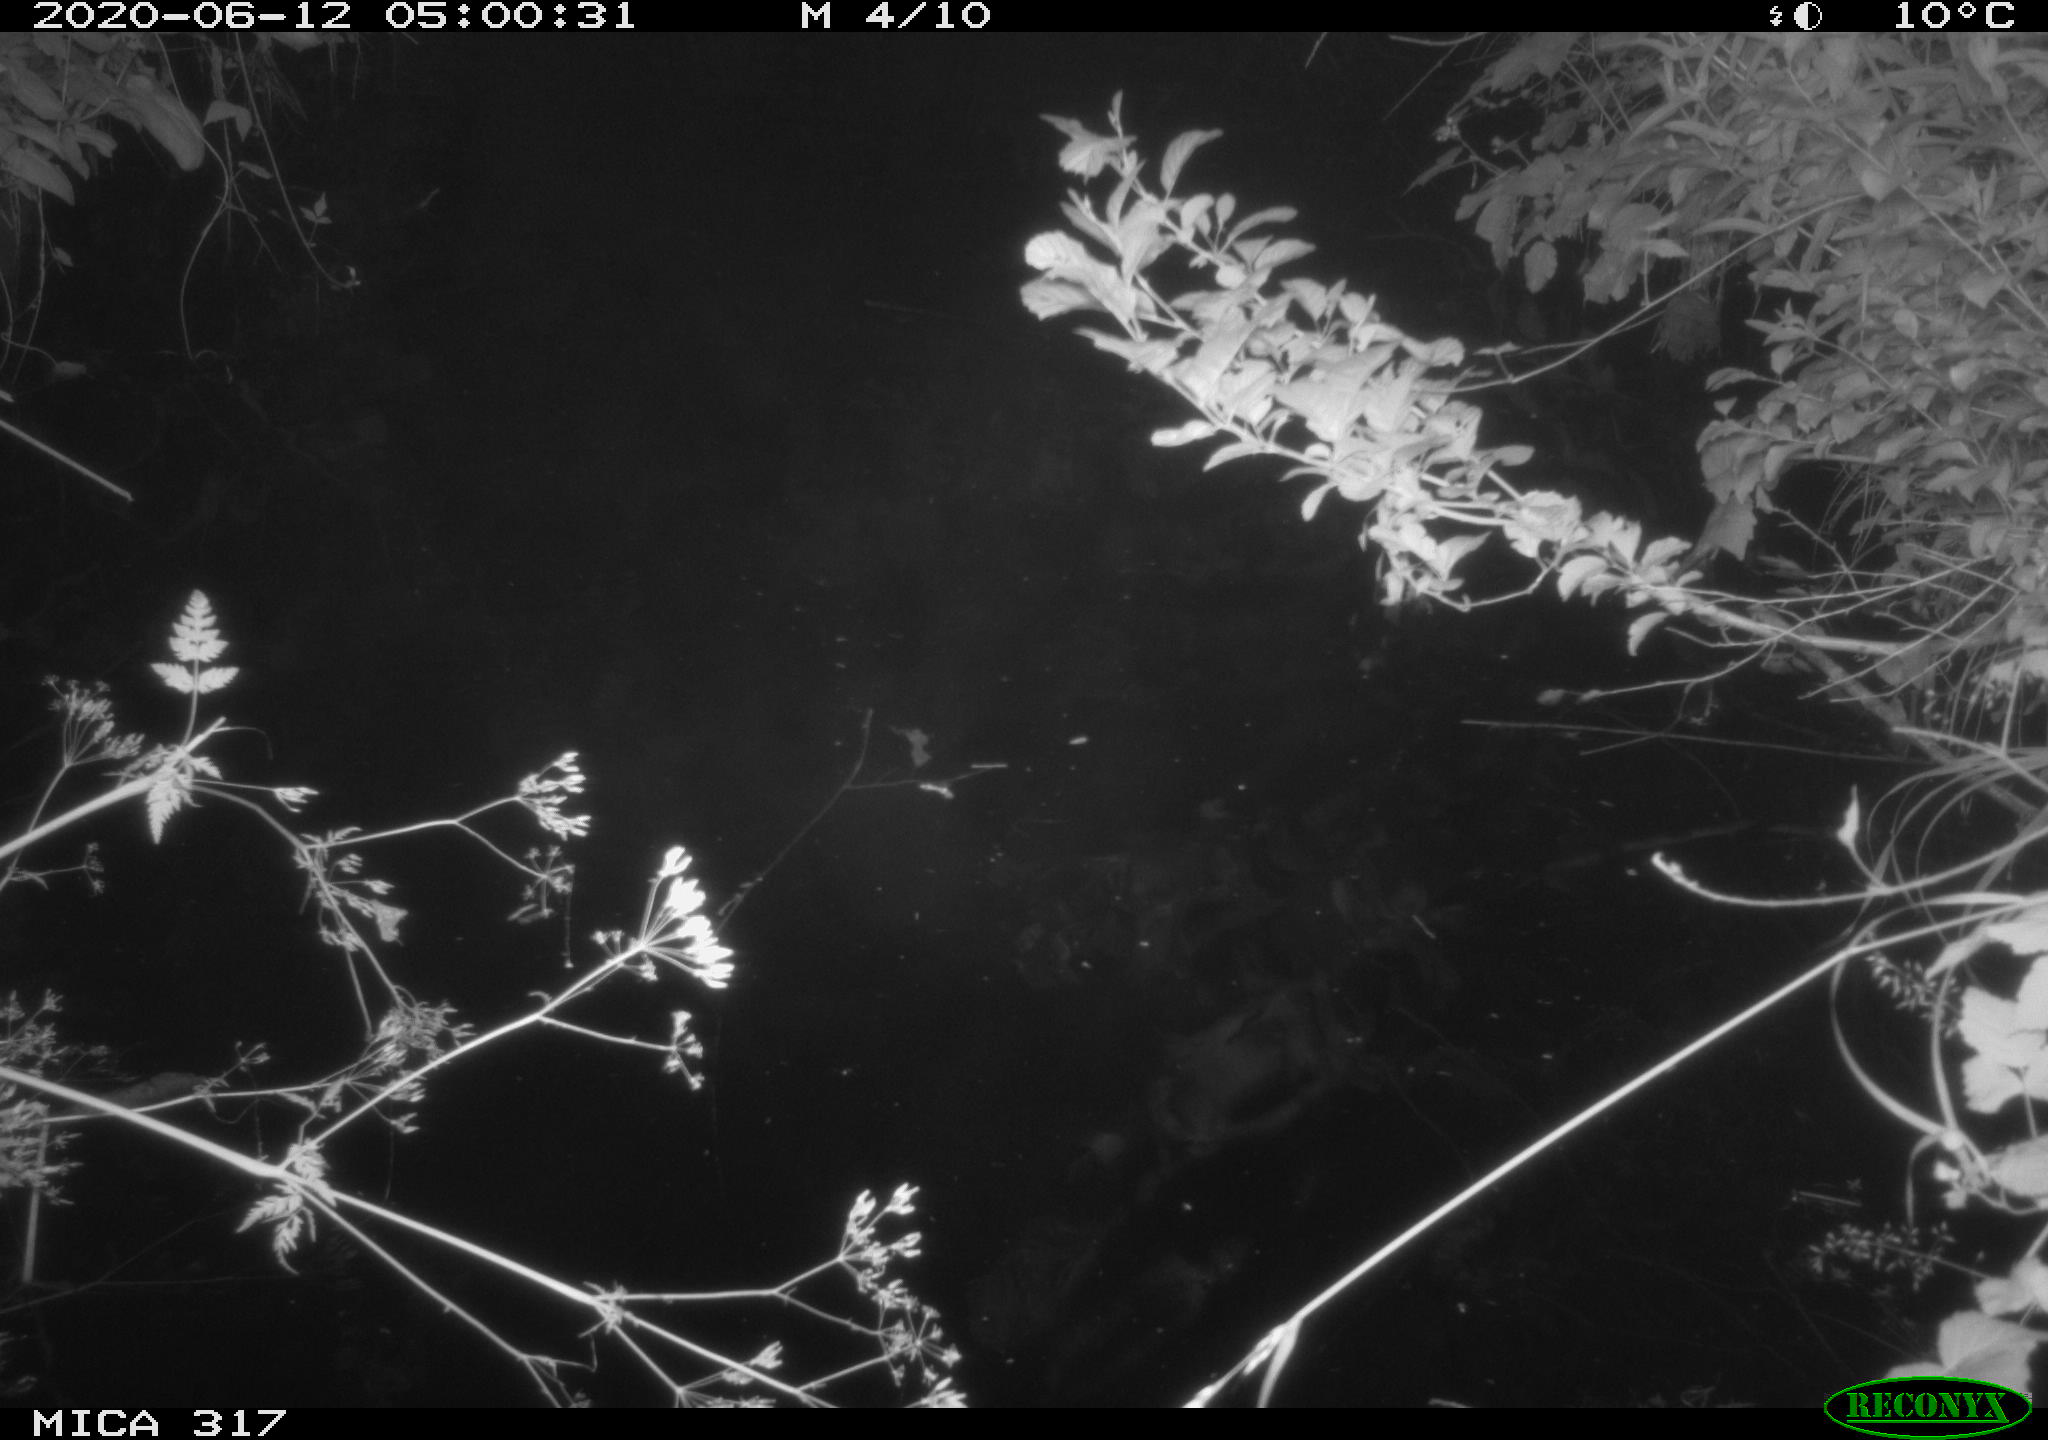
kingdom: Animalia
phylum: Chordata
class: Aves
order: Anseriformes
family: Anatidae
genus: Anas
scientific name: Anas platyrhynchos
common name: Mallard
